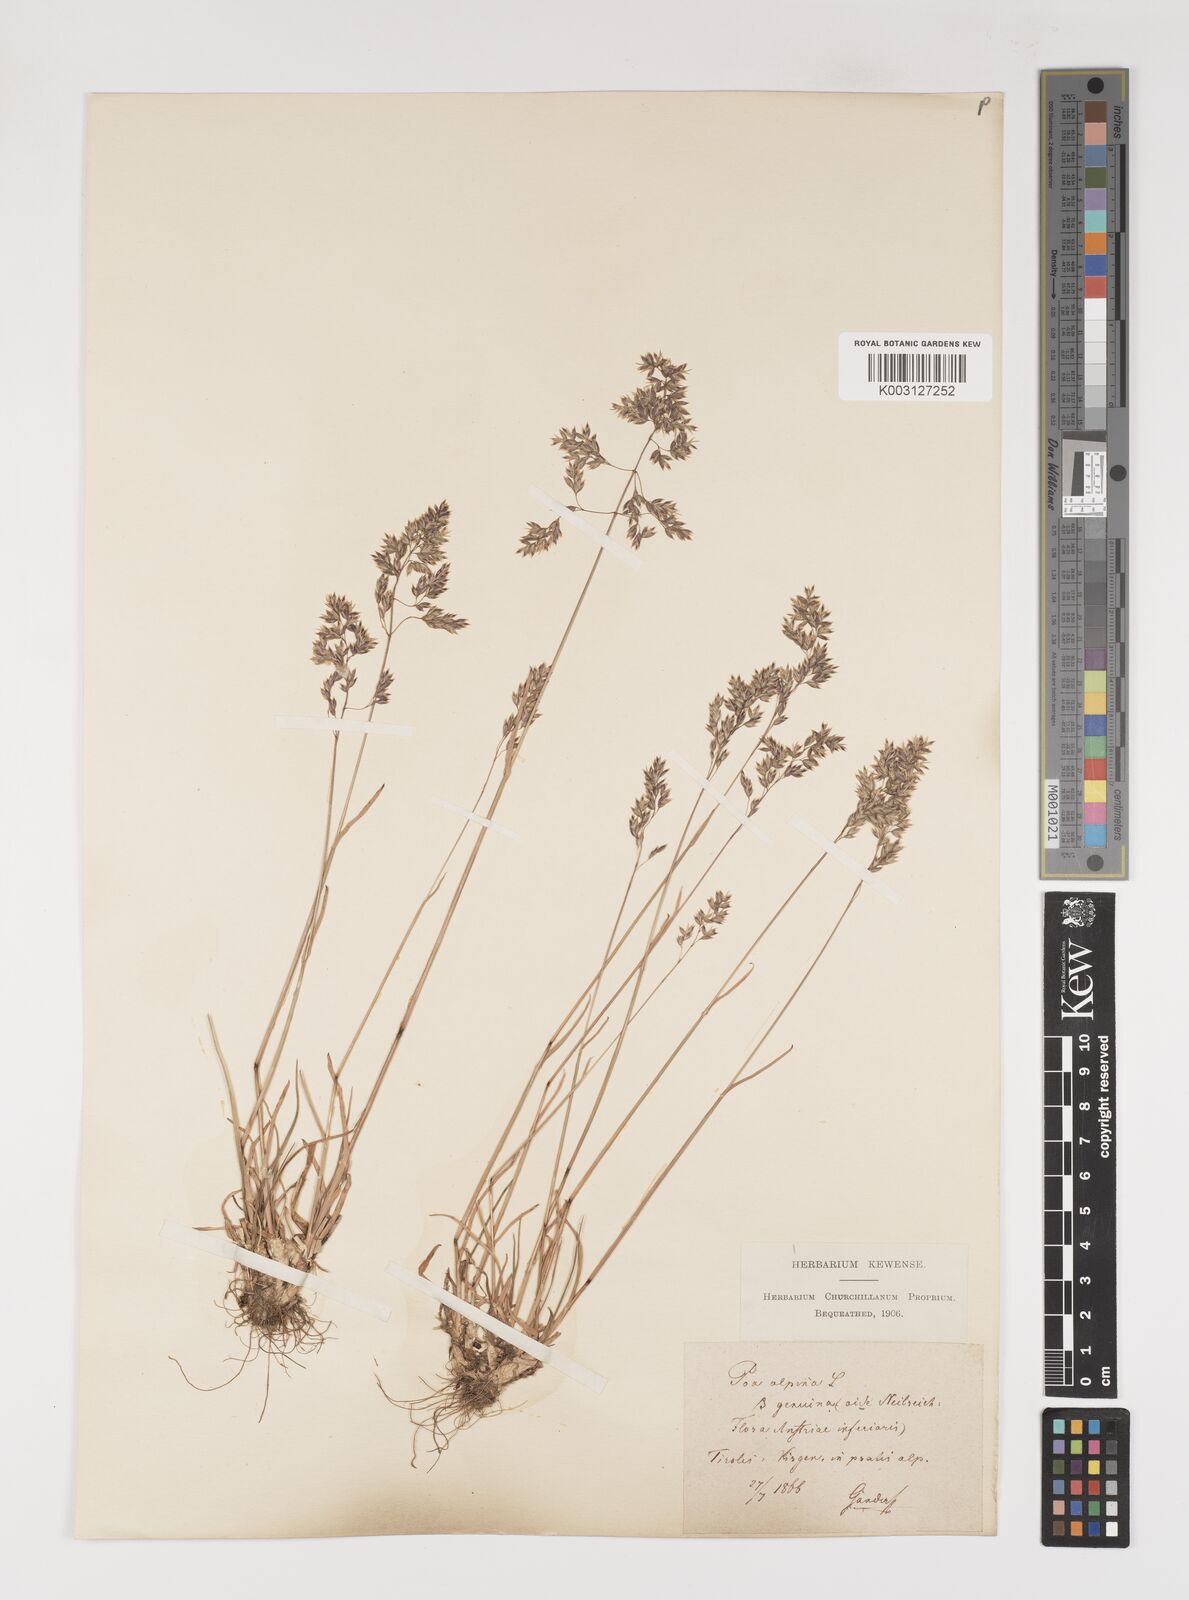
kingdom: Plantae
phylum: Tracheophyta
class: Liliopsida
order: Poales
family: Poaceae
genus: Poa
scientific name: Poa alpina
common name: Alpine bluegrass
